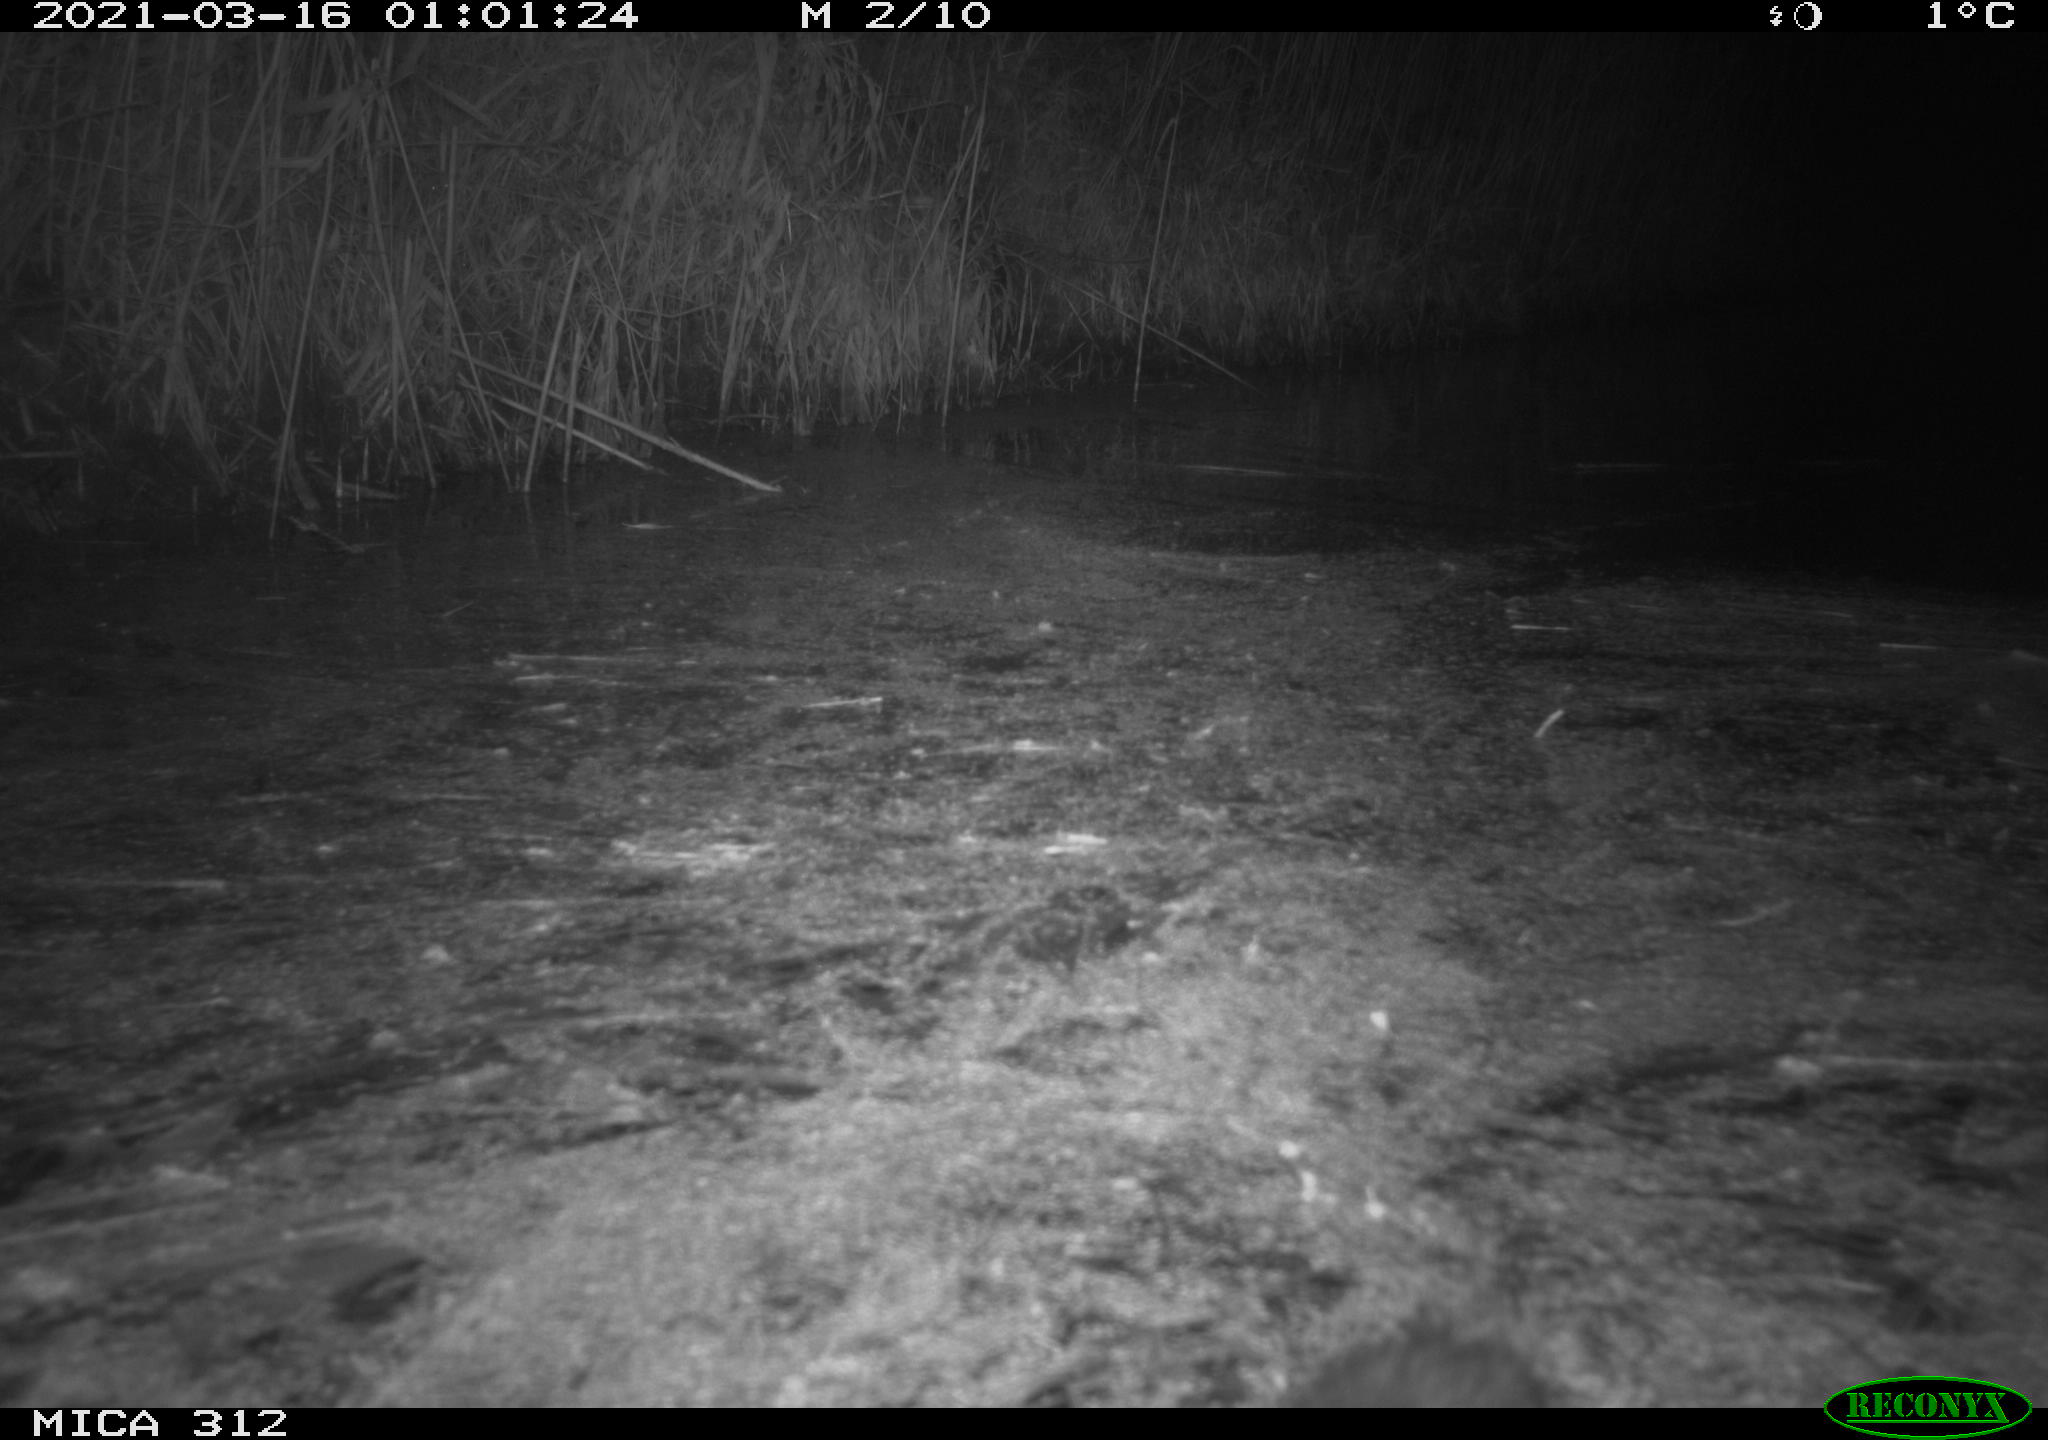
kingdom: Animalia
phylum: Chordata
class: Mammalia
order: Rodentia
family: Cricetidae
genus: Ondatra
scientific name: Ondatra zibethicus
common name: Muskrat
